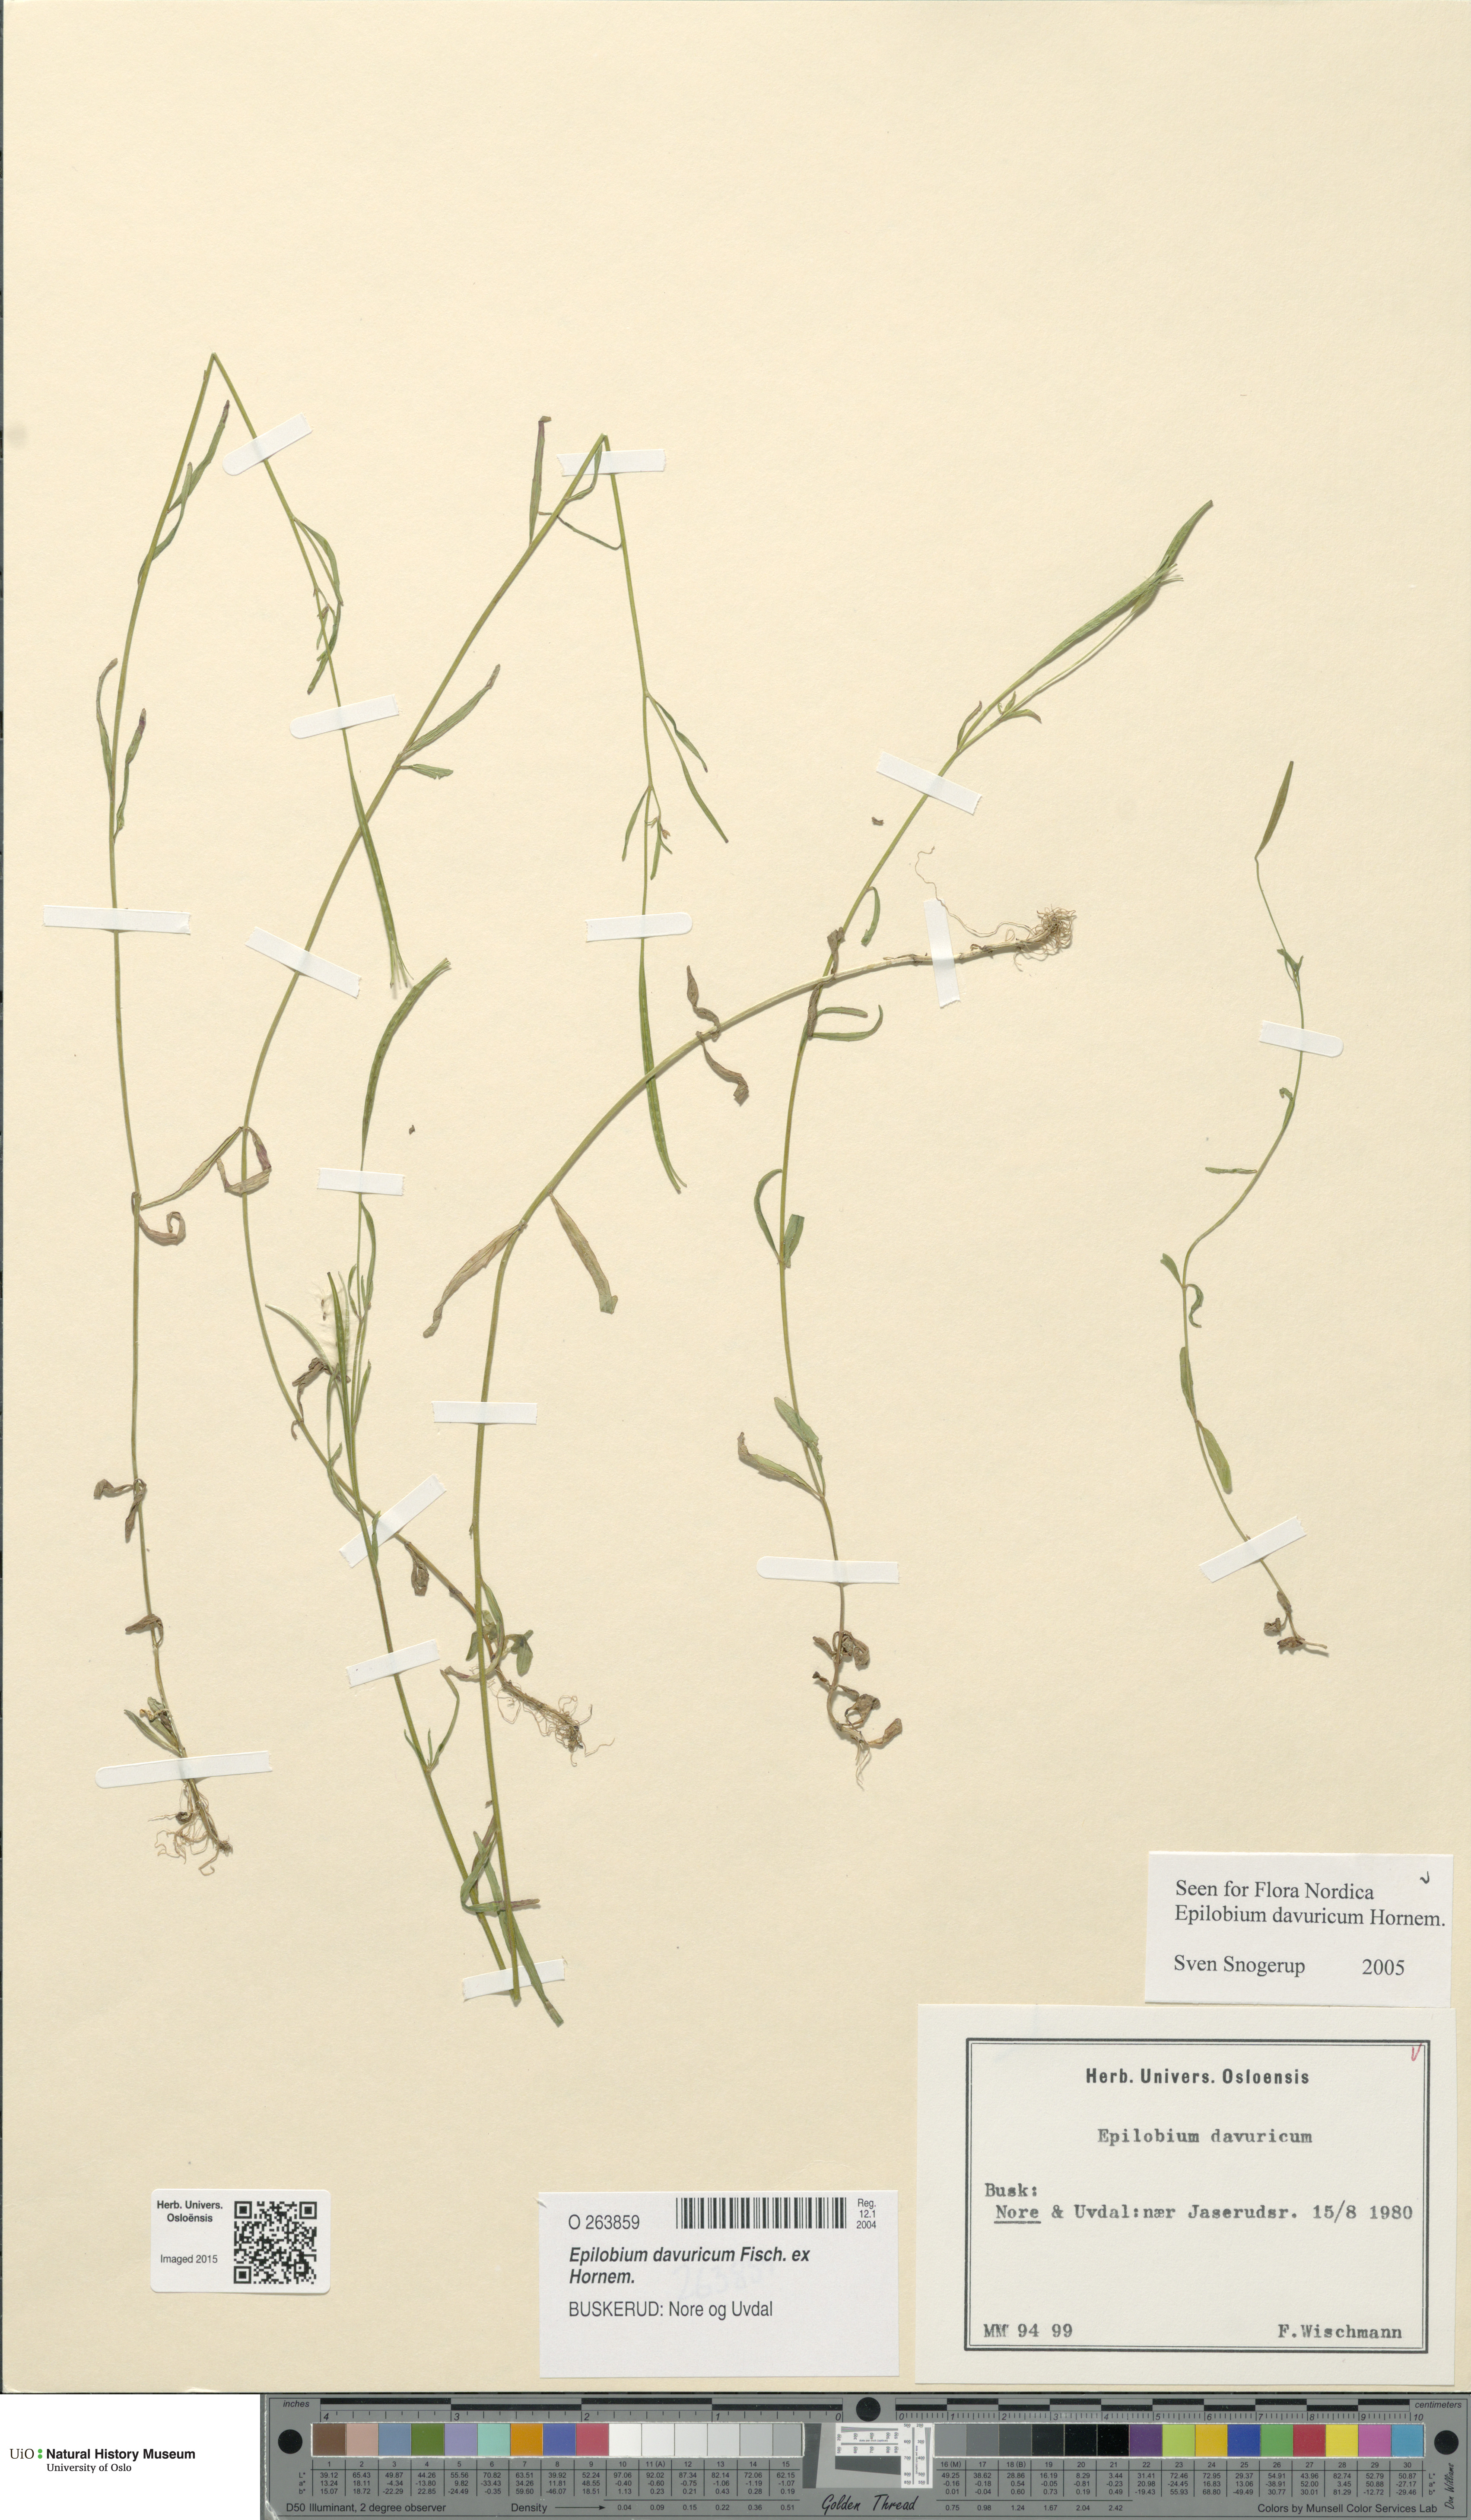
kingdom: Plantae
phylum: Tracheophyta
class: Magnoliopsida
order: Myrtales
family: Onagraceae
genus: Epilobium
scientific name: Epilobium davuricum
